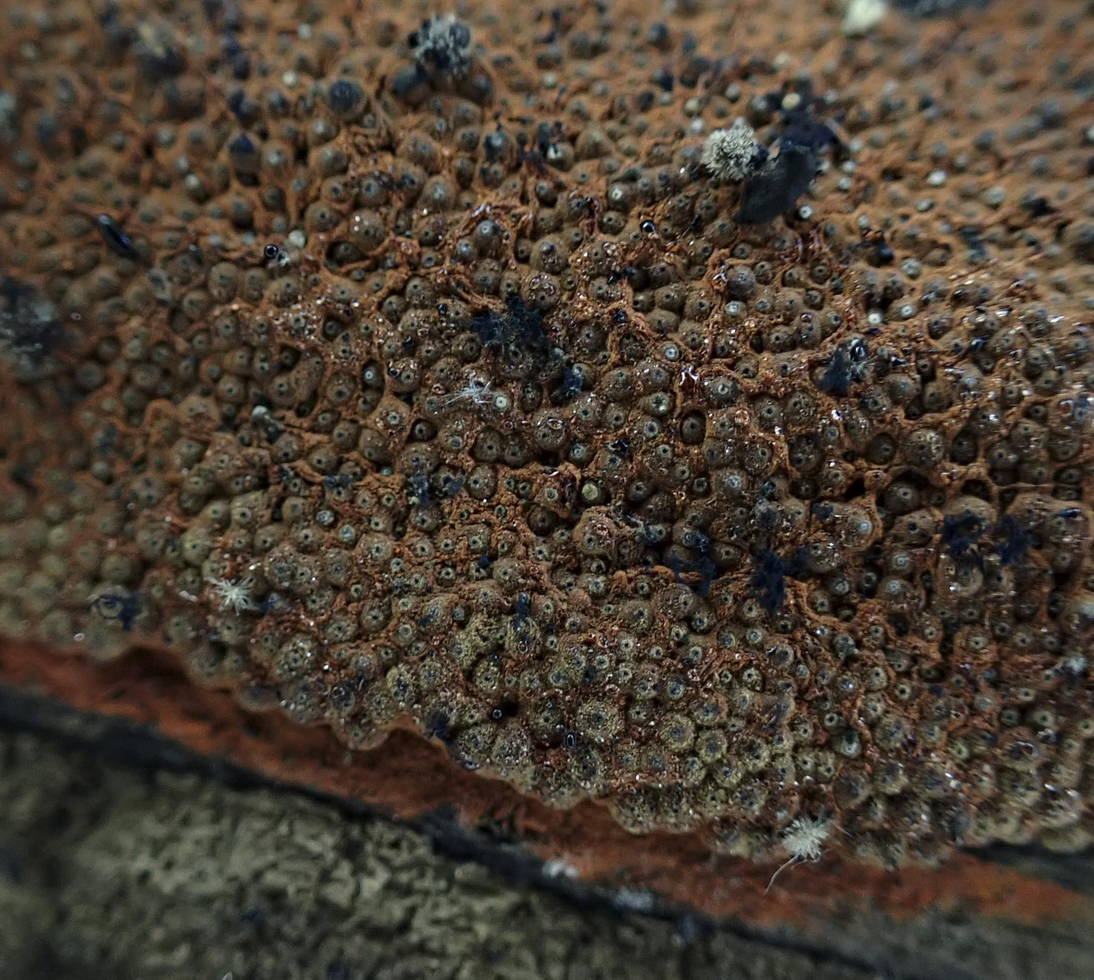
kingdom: Fungi
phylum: Ascomycota
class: Sordariomycetes
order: Xylariales
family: Hypoxylaceae
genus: Hypoxylon
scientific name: Hypoxylon rubiginosum
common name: rustfarvet kulbær
